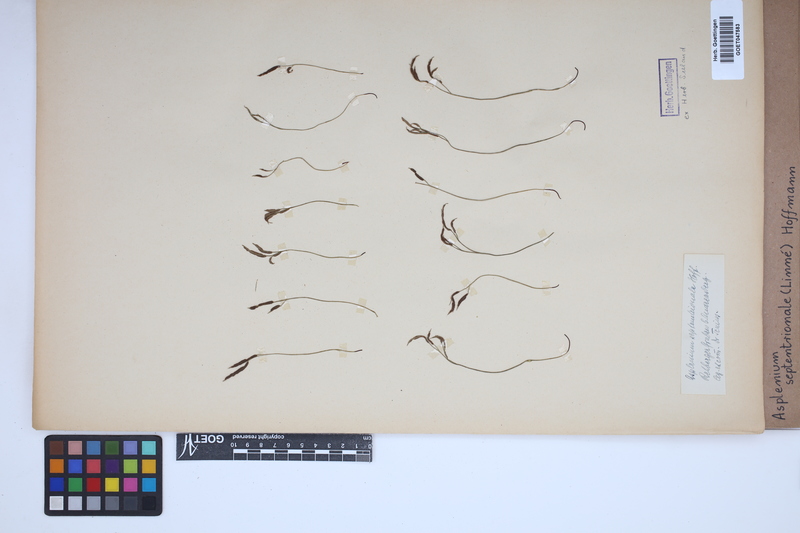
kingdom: Plantae
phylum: Tracheophyta
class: Polypodiopsida
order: Polypodiales
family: Aspleniaceae
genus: Asplenium
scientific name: Asplenium septentrionale
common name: Forked spleenwort
